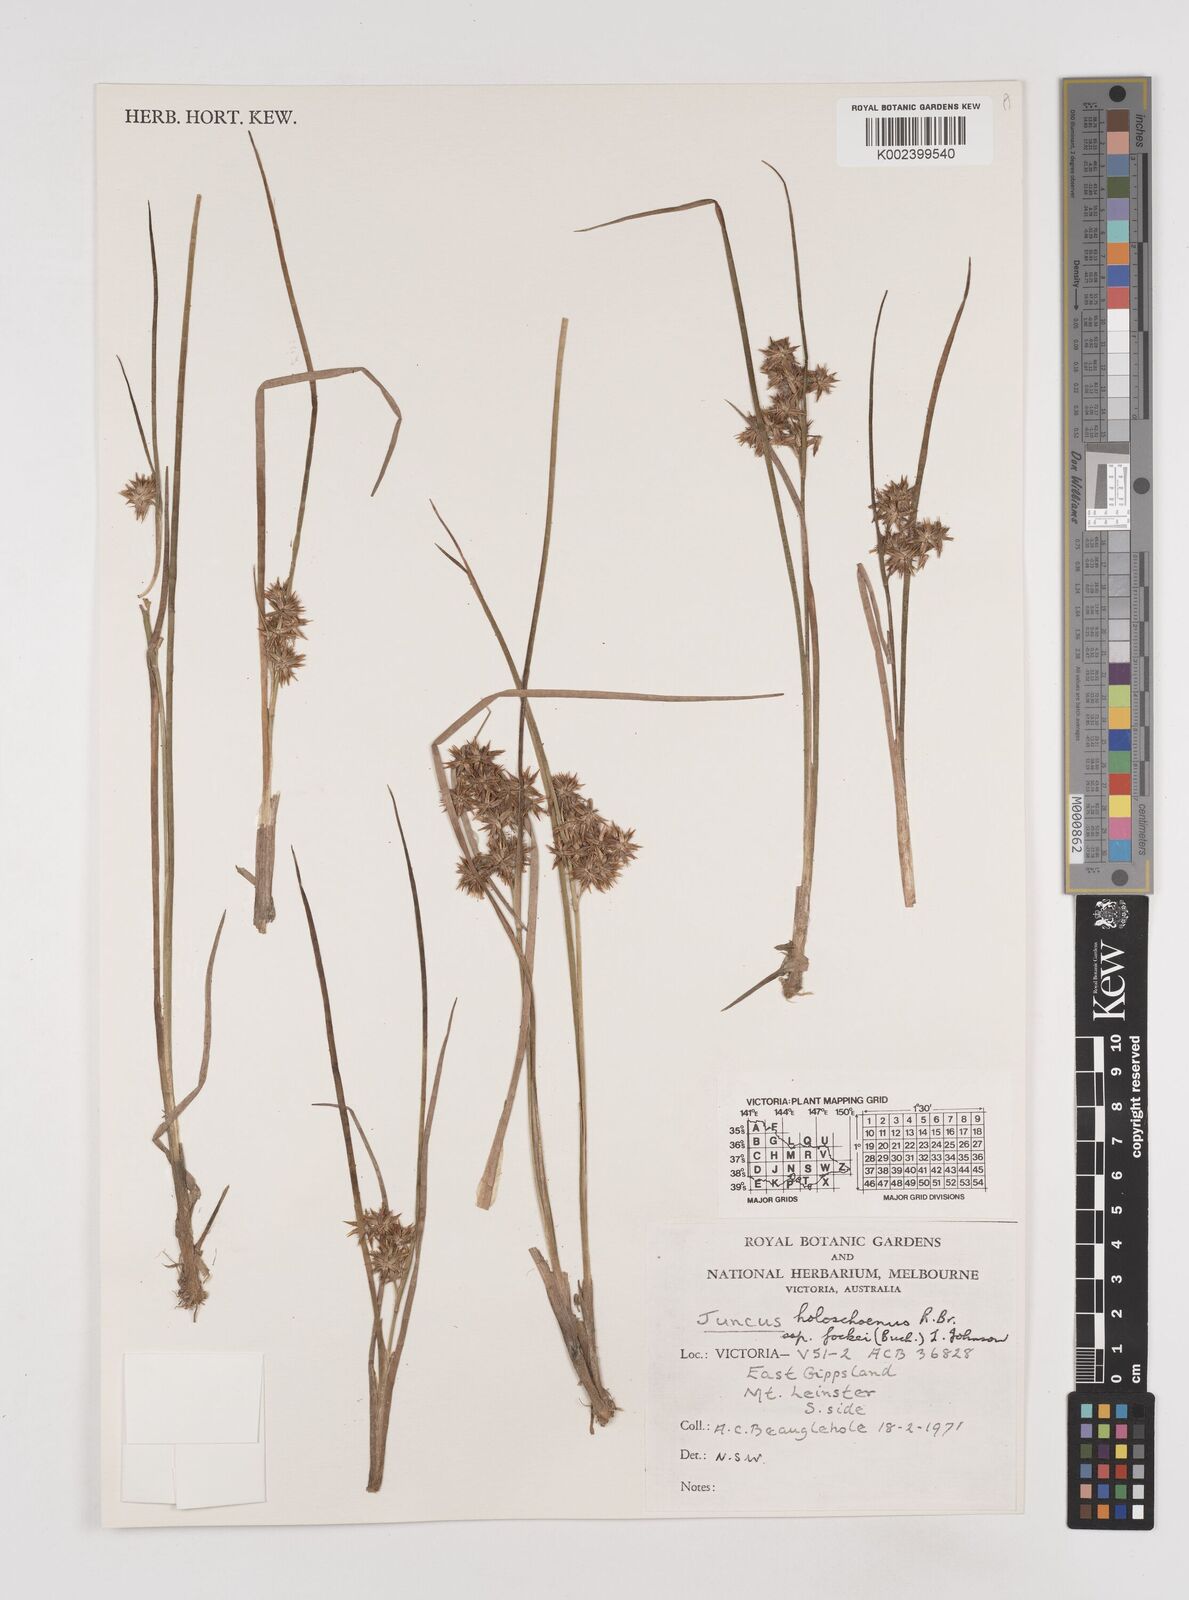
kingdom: Plantae
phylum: Tracheophyta
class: Liliopsida
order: Poales
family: Juncaceae
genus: Juncus
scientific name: Juncus holoschoenus
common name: Joint-leaf rush
